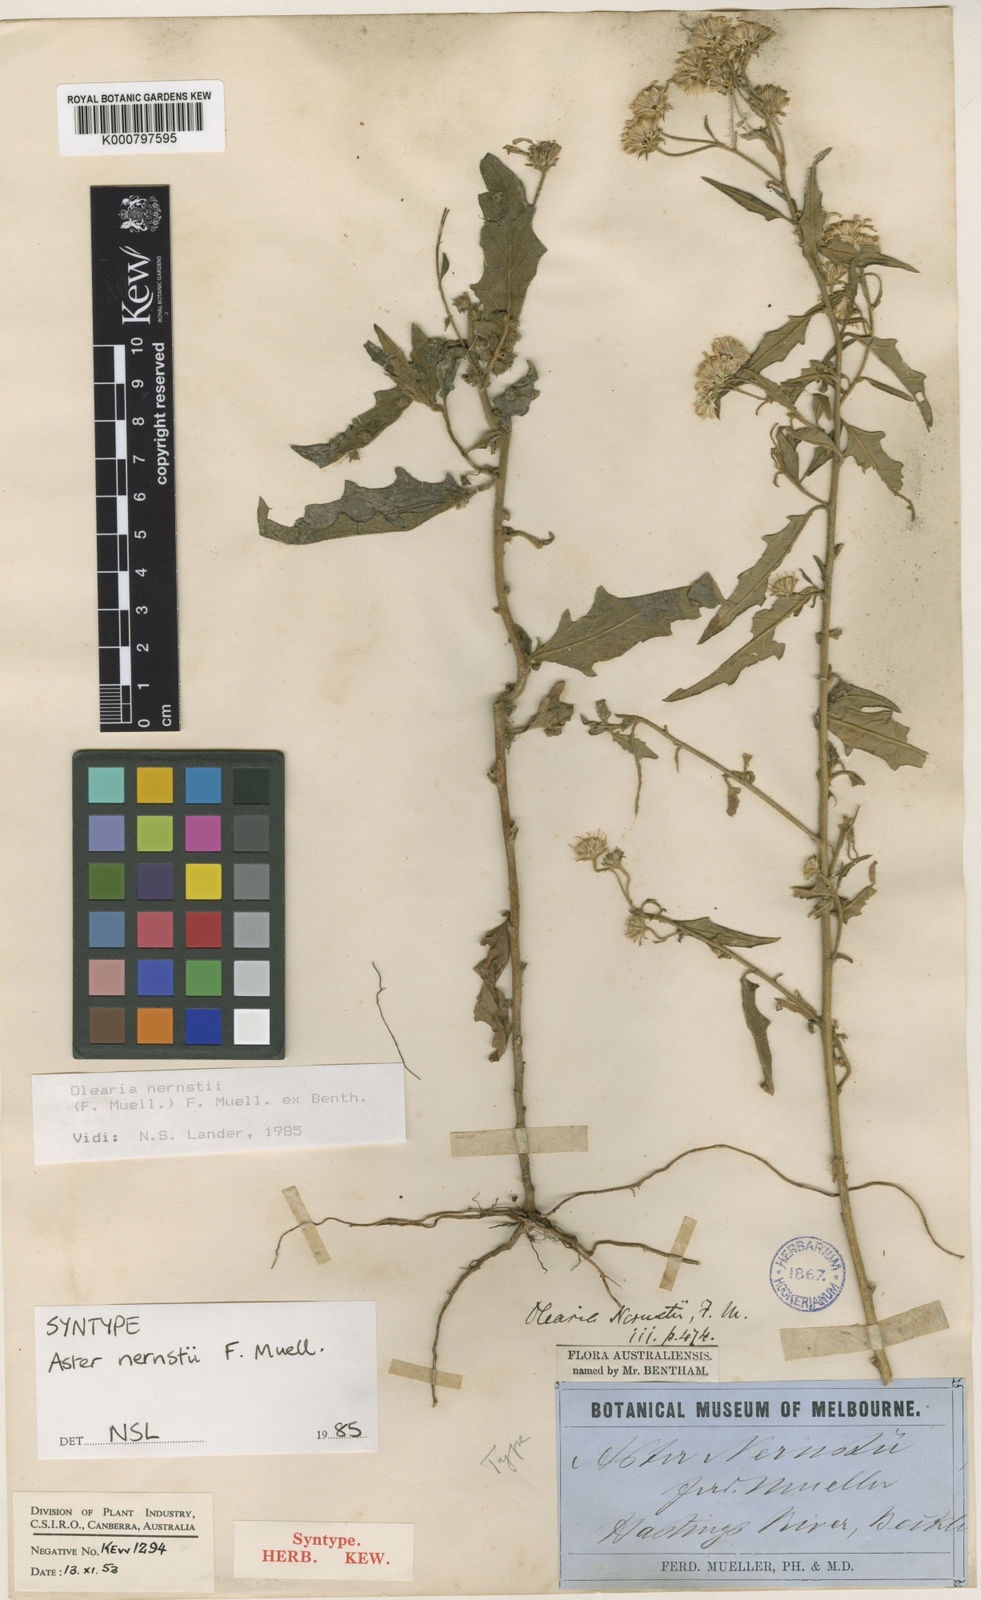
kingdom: Plantae
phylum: Tracheophyta
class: Magnoliopsida
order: Asterales
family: Asteraceae
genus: Olearia
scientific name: Olearia nernstii
